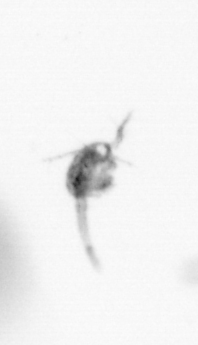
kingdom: Animalia
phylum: Arthropoda
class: Copepoda
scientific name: Copepoda
